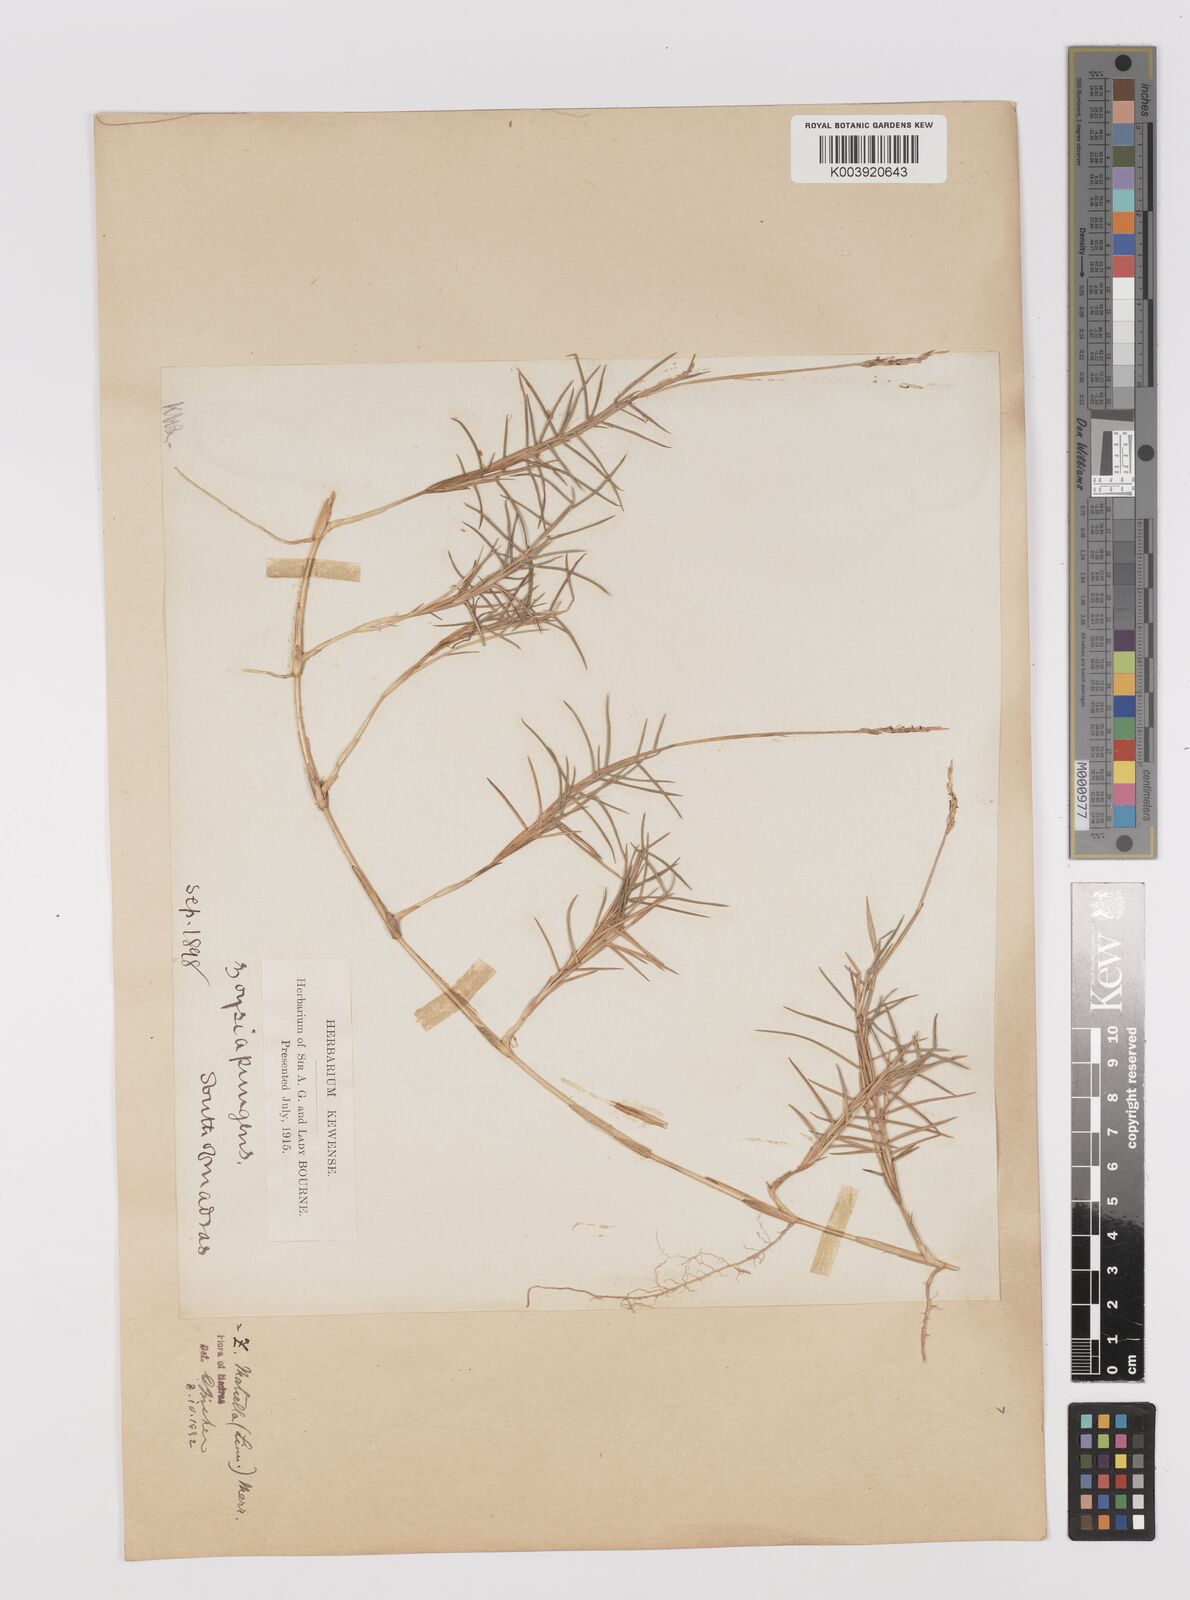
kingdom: Plantae
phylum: Tracheophyta
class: Liliopsida
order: Poales
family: Poaceae
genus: Zoysia
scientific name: Zoysia matrella
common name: Manila grass
